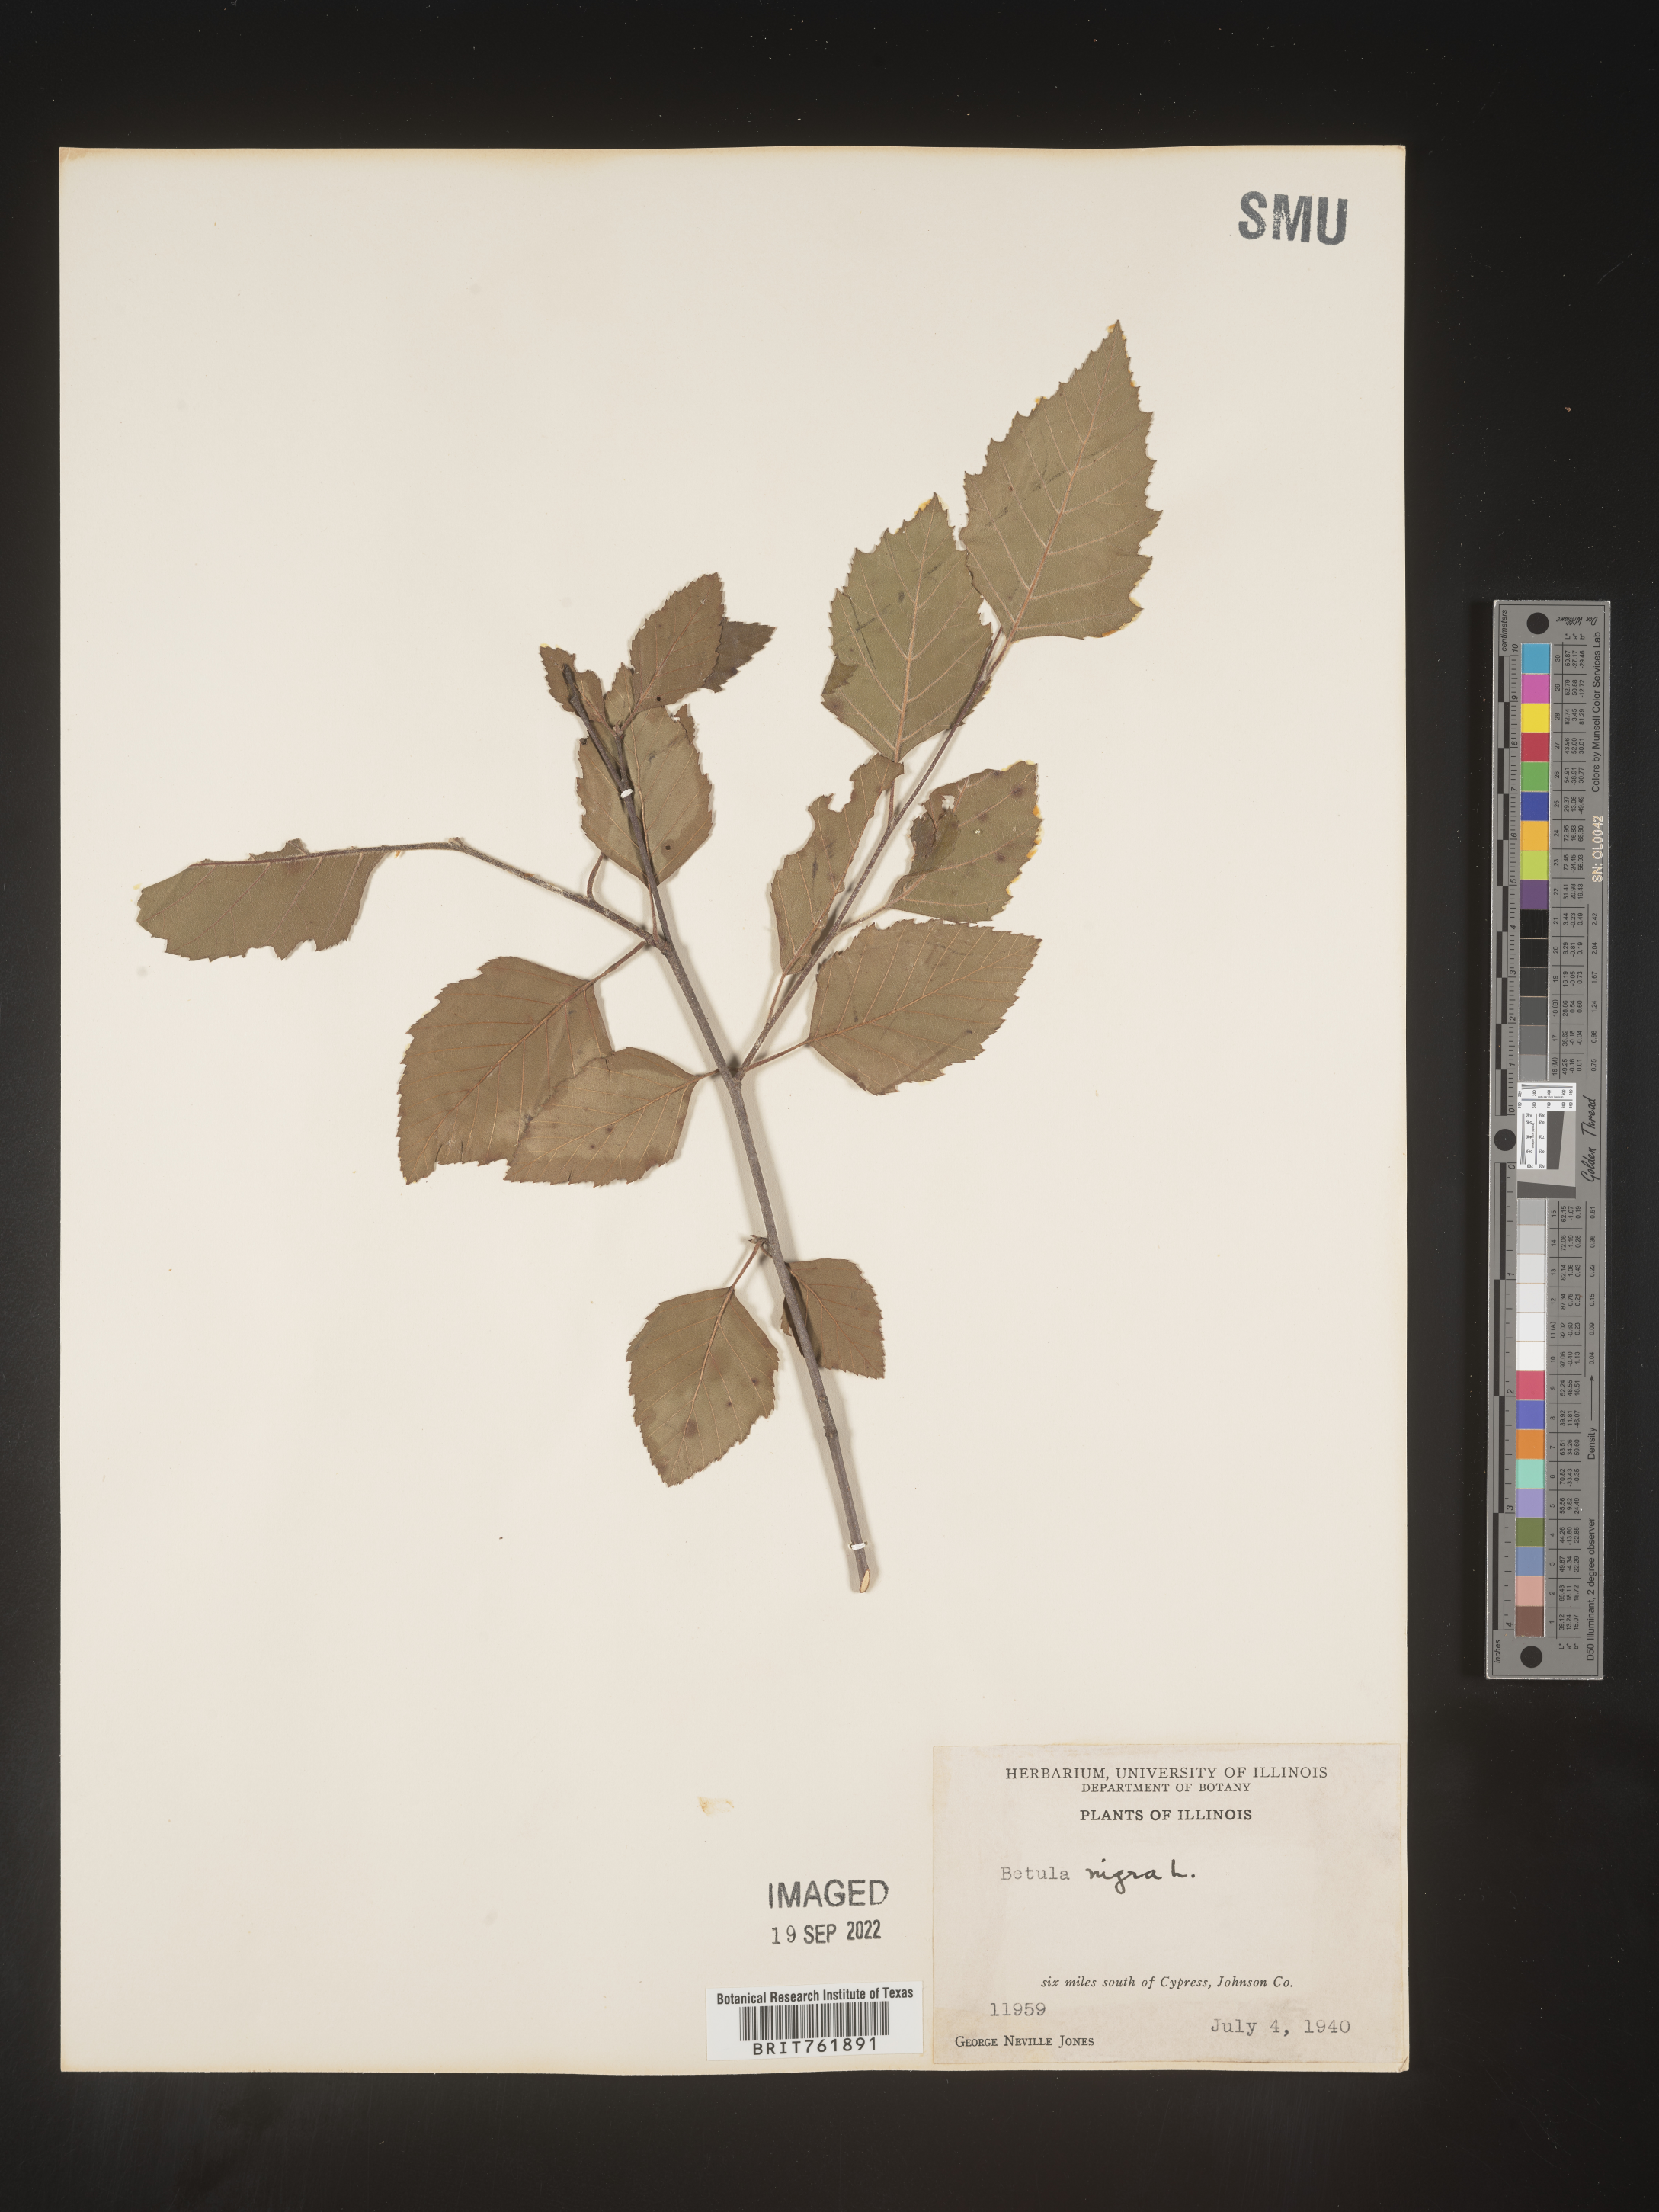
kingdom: Plantae
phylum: Tracheophyta
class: Magnoliopsida
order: Fagales
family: Betulaceae
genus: Betula
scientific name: Betula nigra
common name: Black birch
